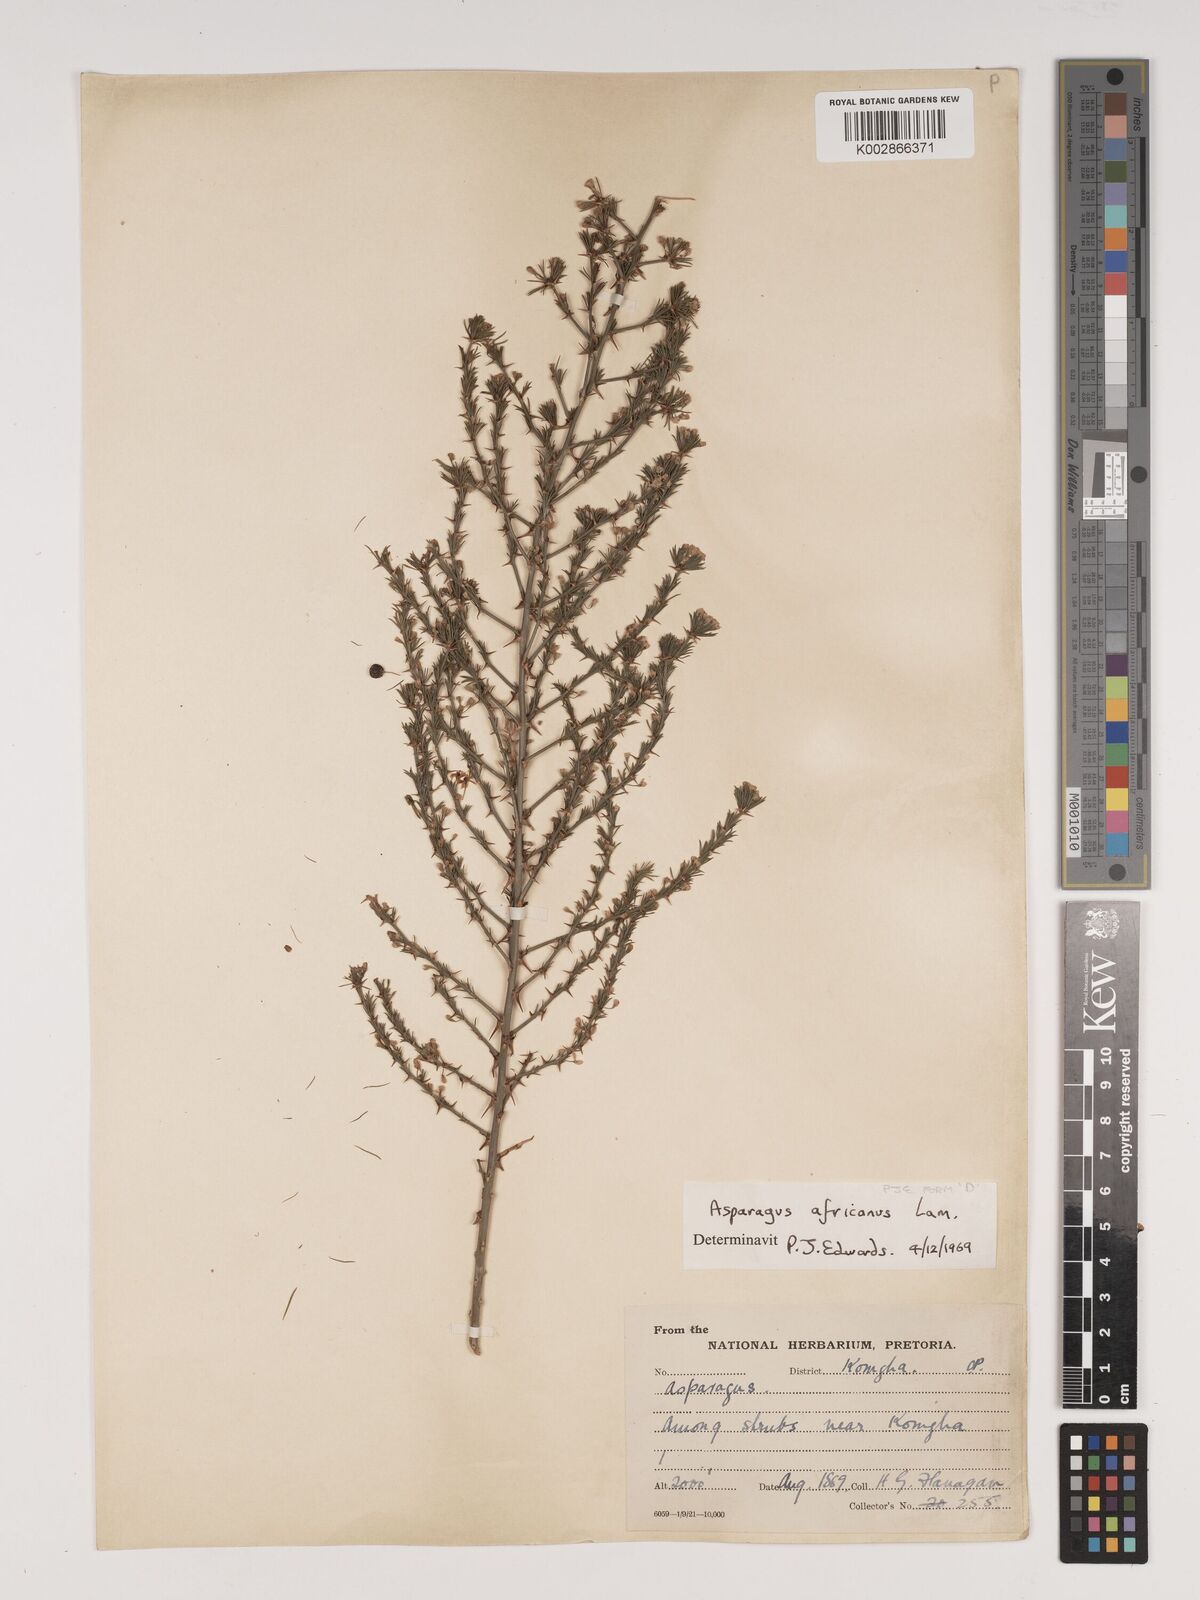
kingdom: Plantae
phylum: Tracheophyta
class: Liliopsida
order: Asparagales
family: Asparagaceae
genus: Asparagus
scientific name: Asparagus africanus
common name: Asparagus-fern
